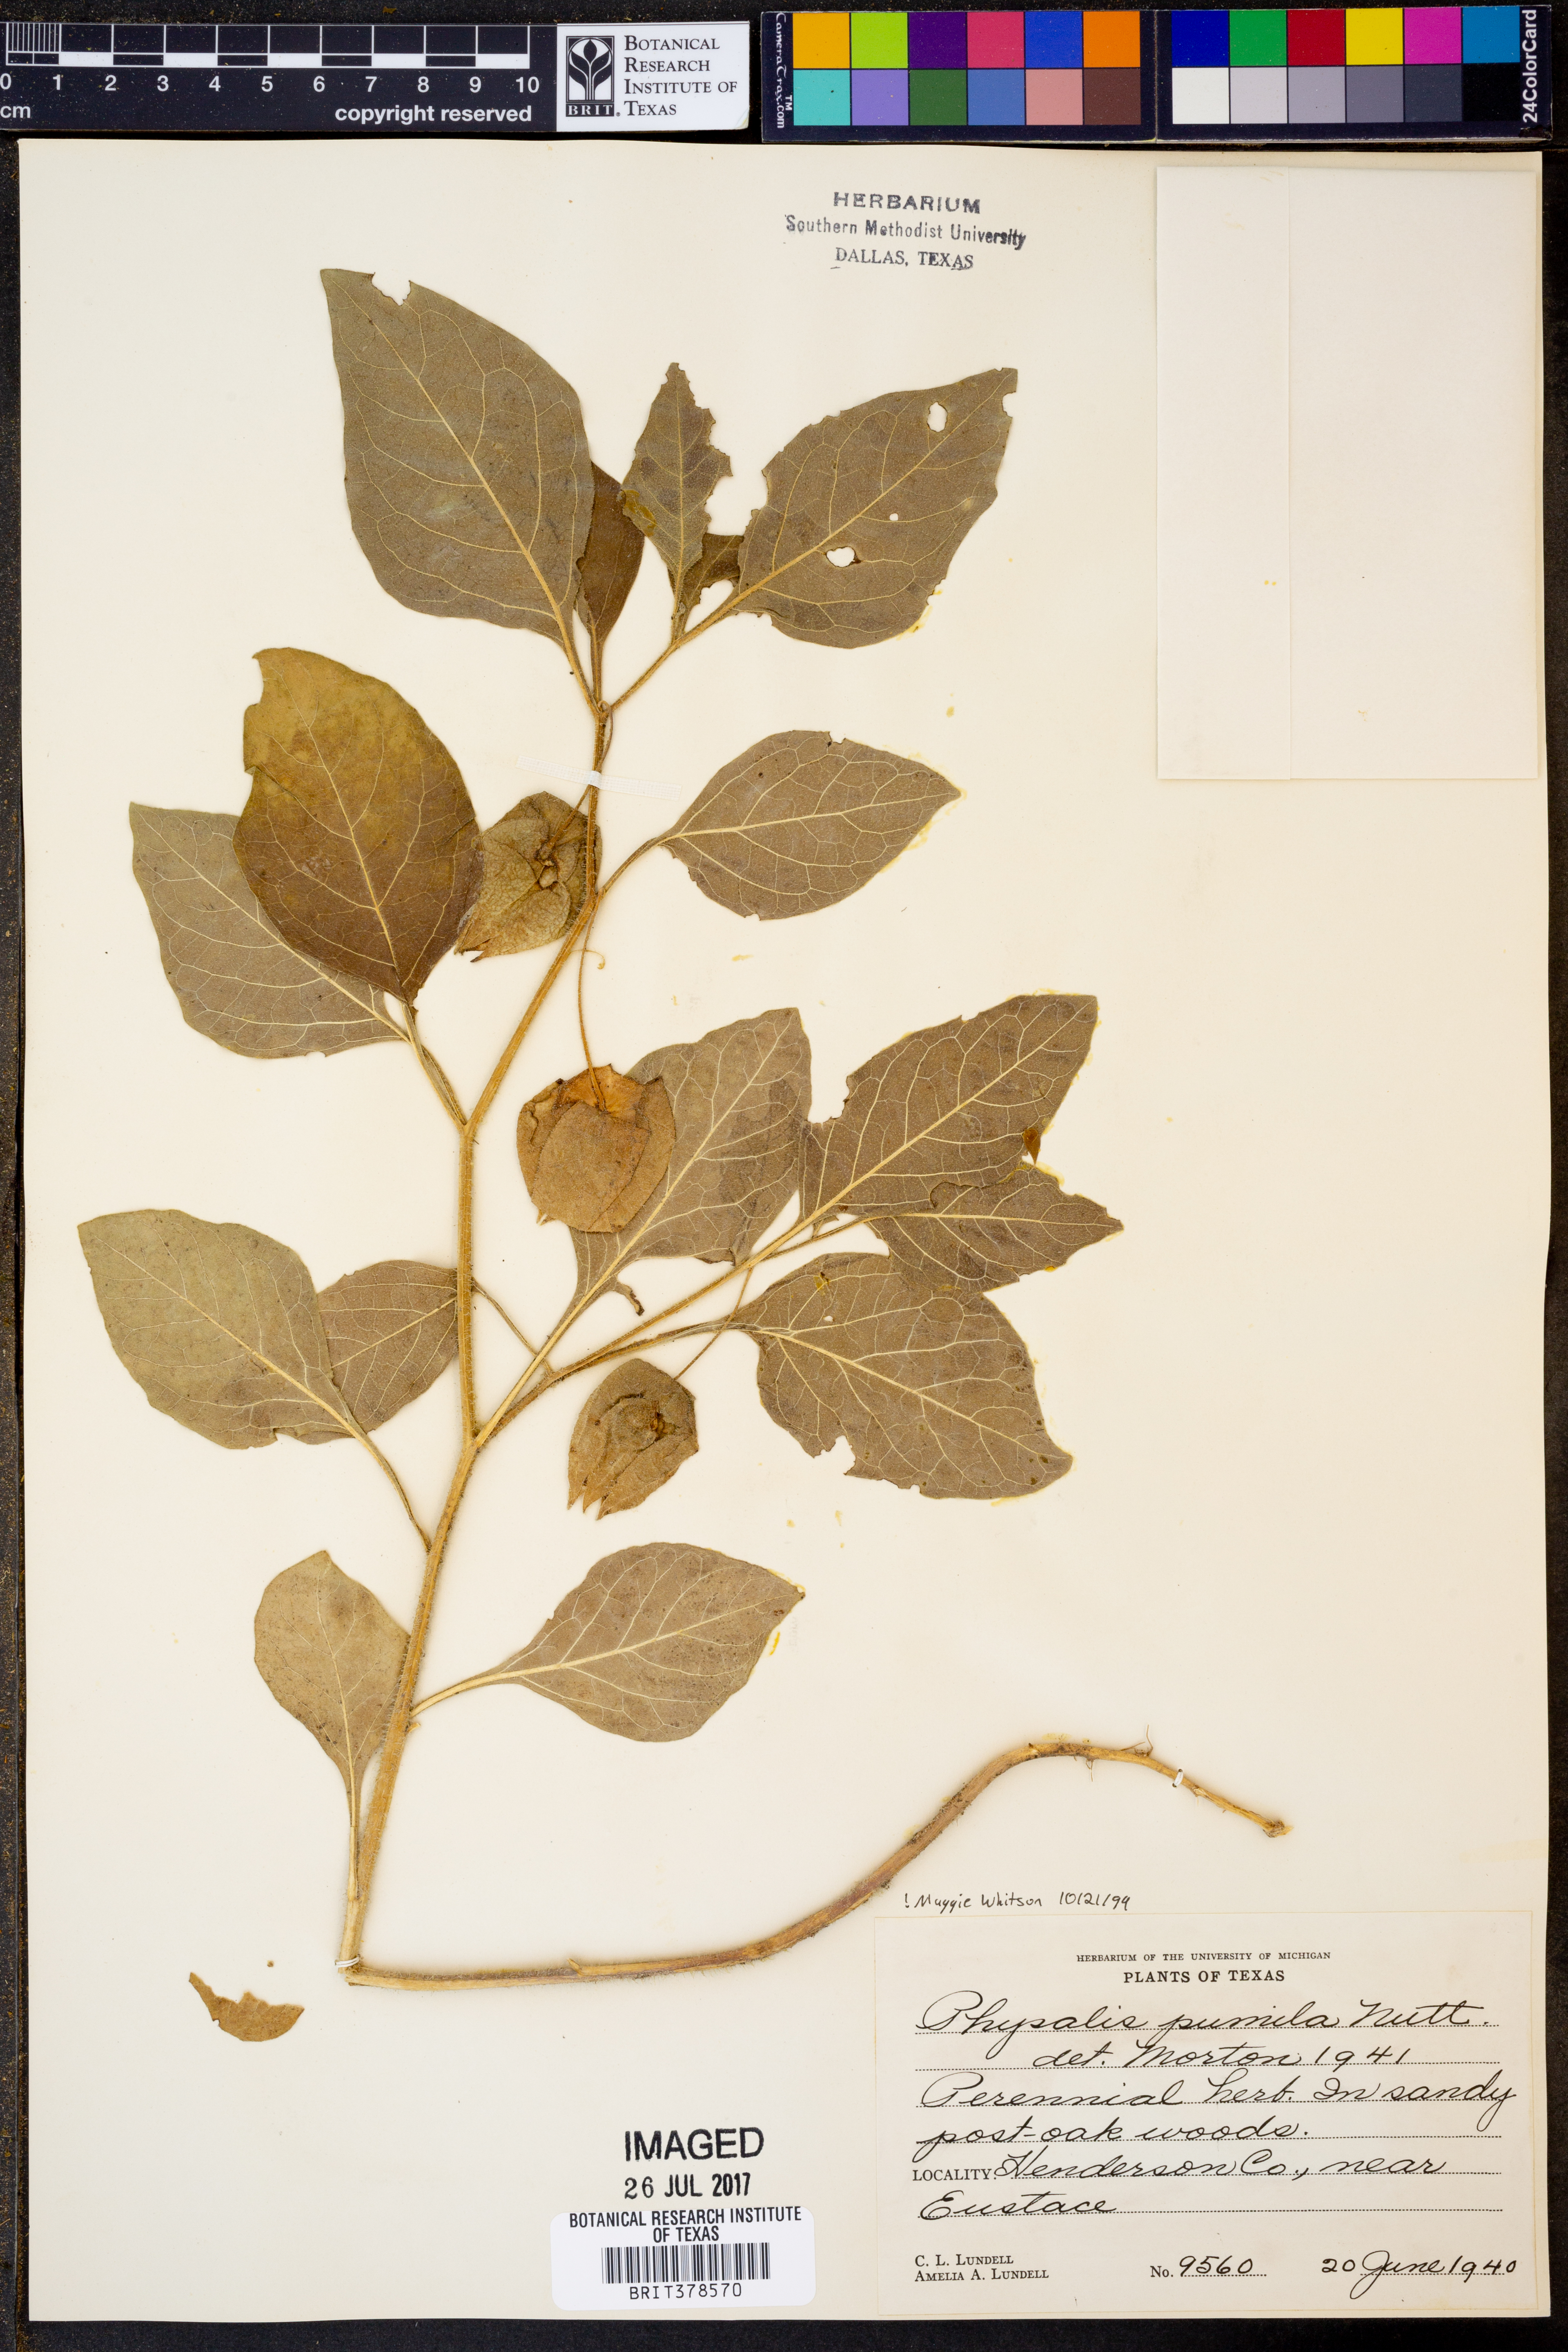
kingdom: Plantae
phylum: Tracheophyta
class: Magnoliopsida
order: Solanales
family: Solanaceae
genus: Physalis
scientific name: Physalis pumila
